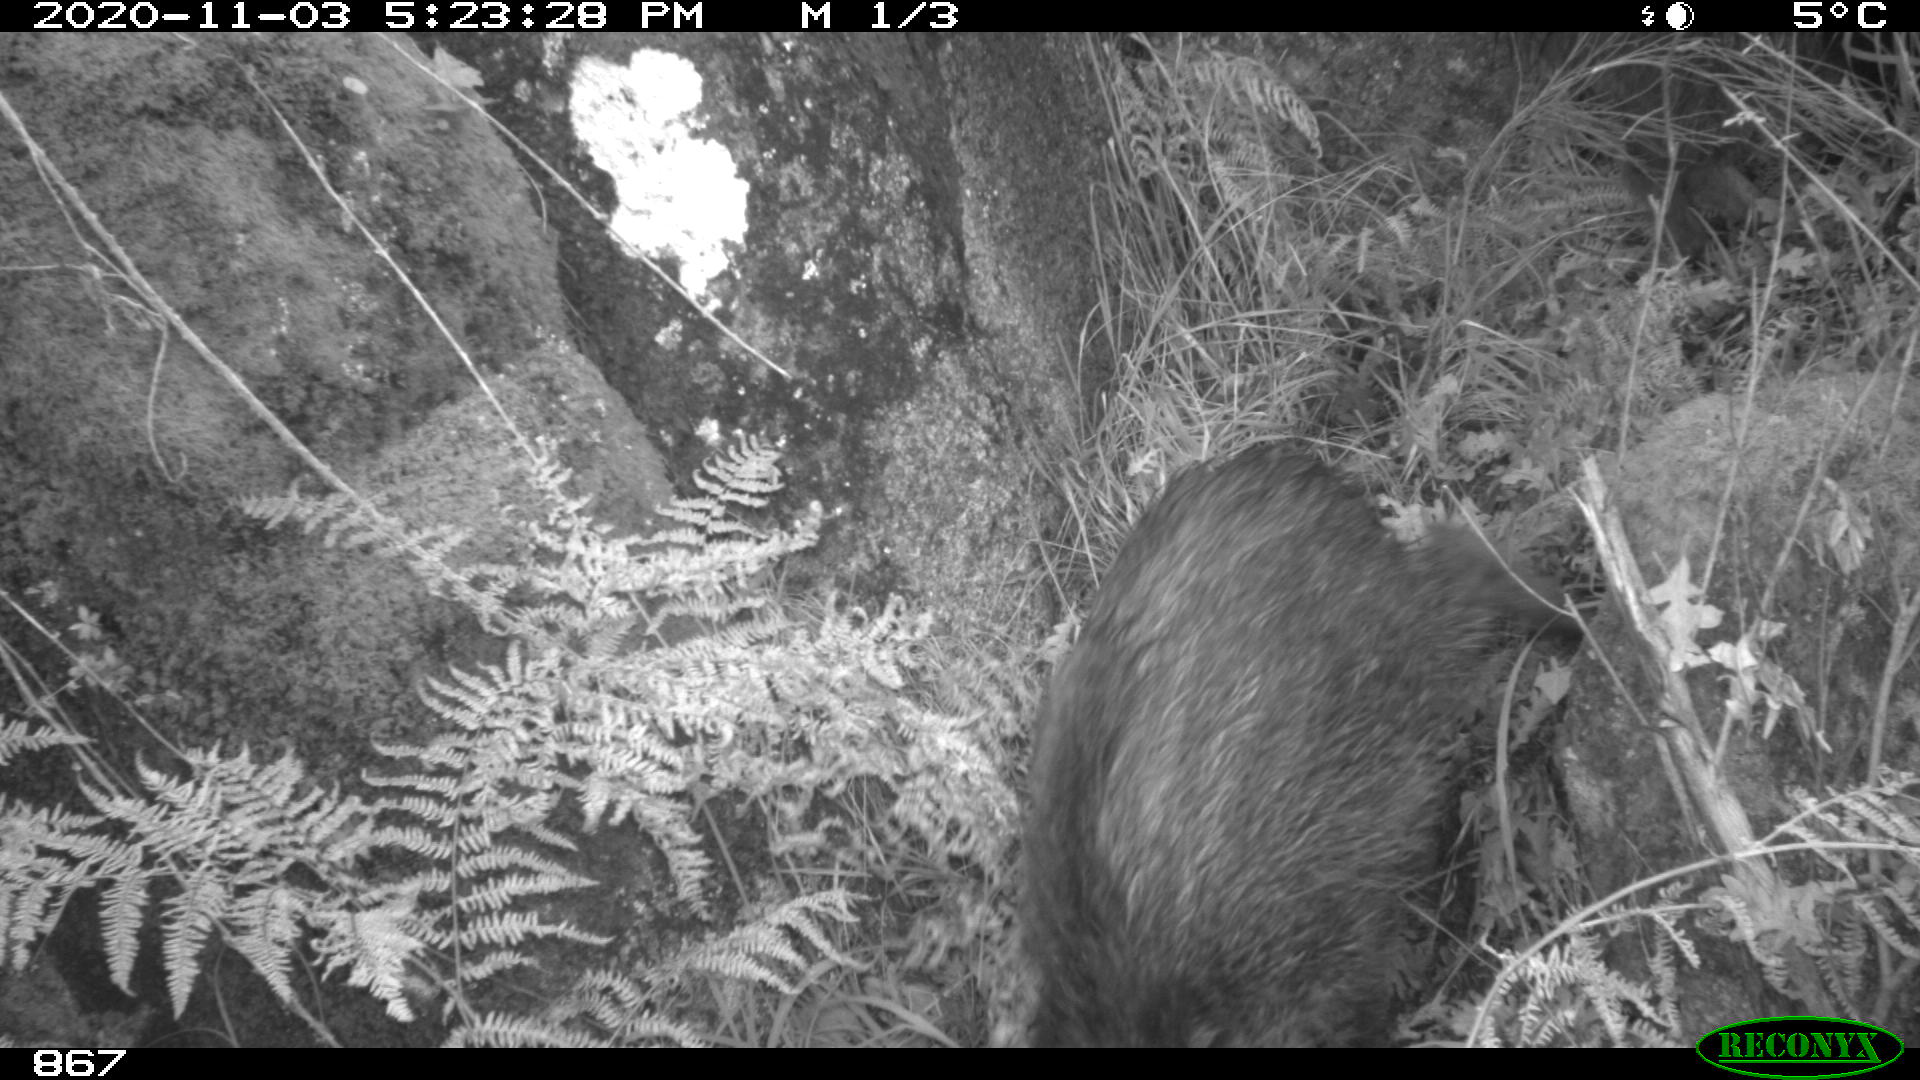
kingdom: Animalia
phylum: Chordata
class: Mammalia
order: Artiodactyla
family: Suidae
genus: Sus
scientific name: Sus scrofa
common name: Wild boar
